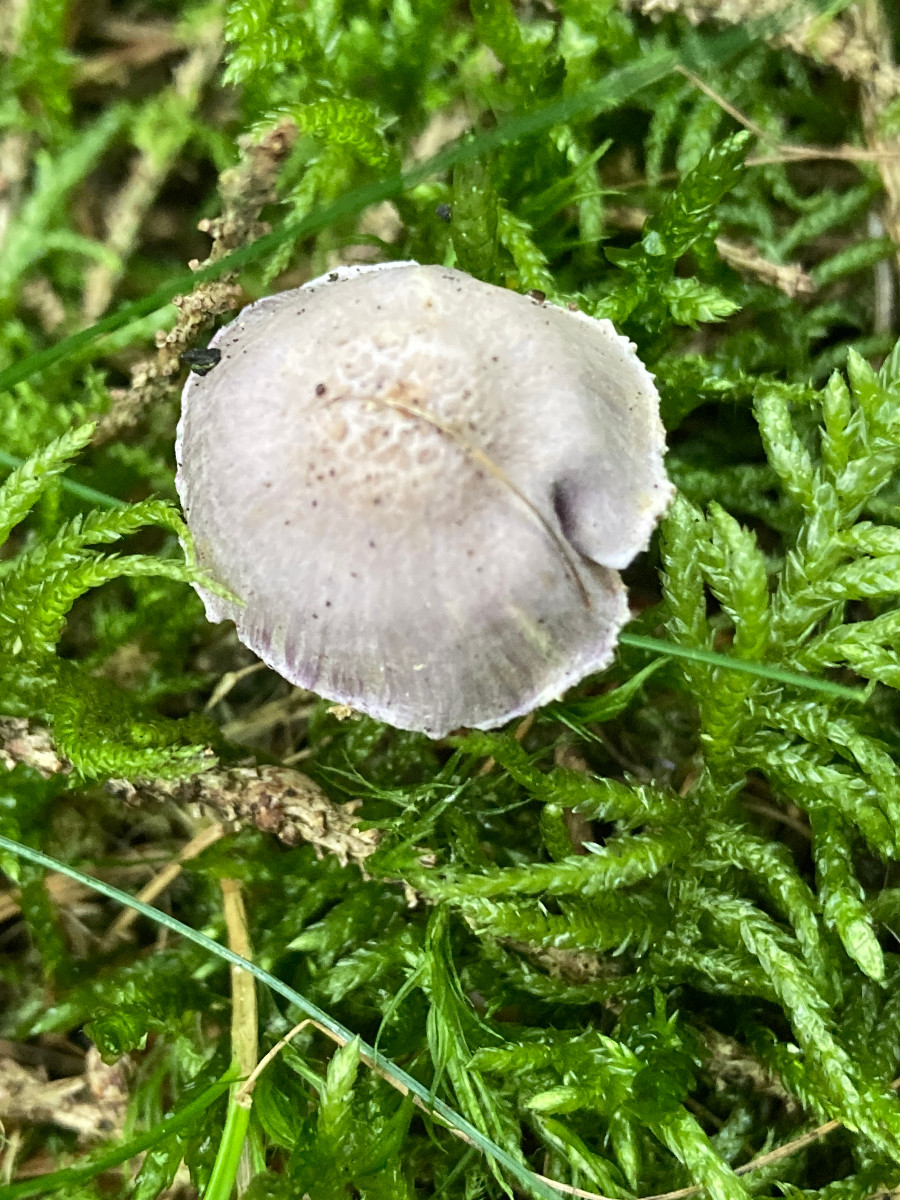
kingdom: Fungi
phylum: Basidiomycota
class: Agaricomycetes
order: Agaricales
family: Inocybaceae
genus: Inocybe
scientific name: Inocybe lilacinomaculata
